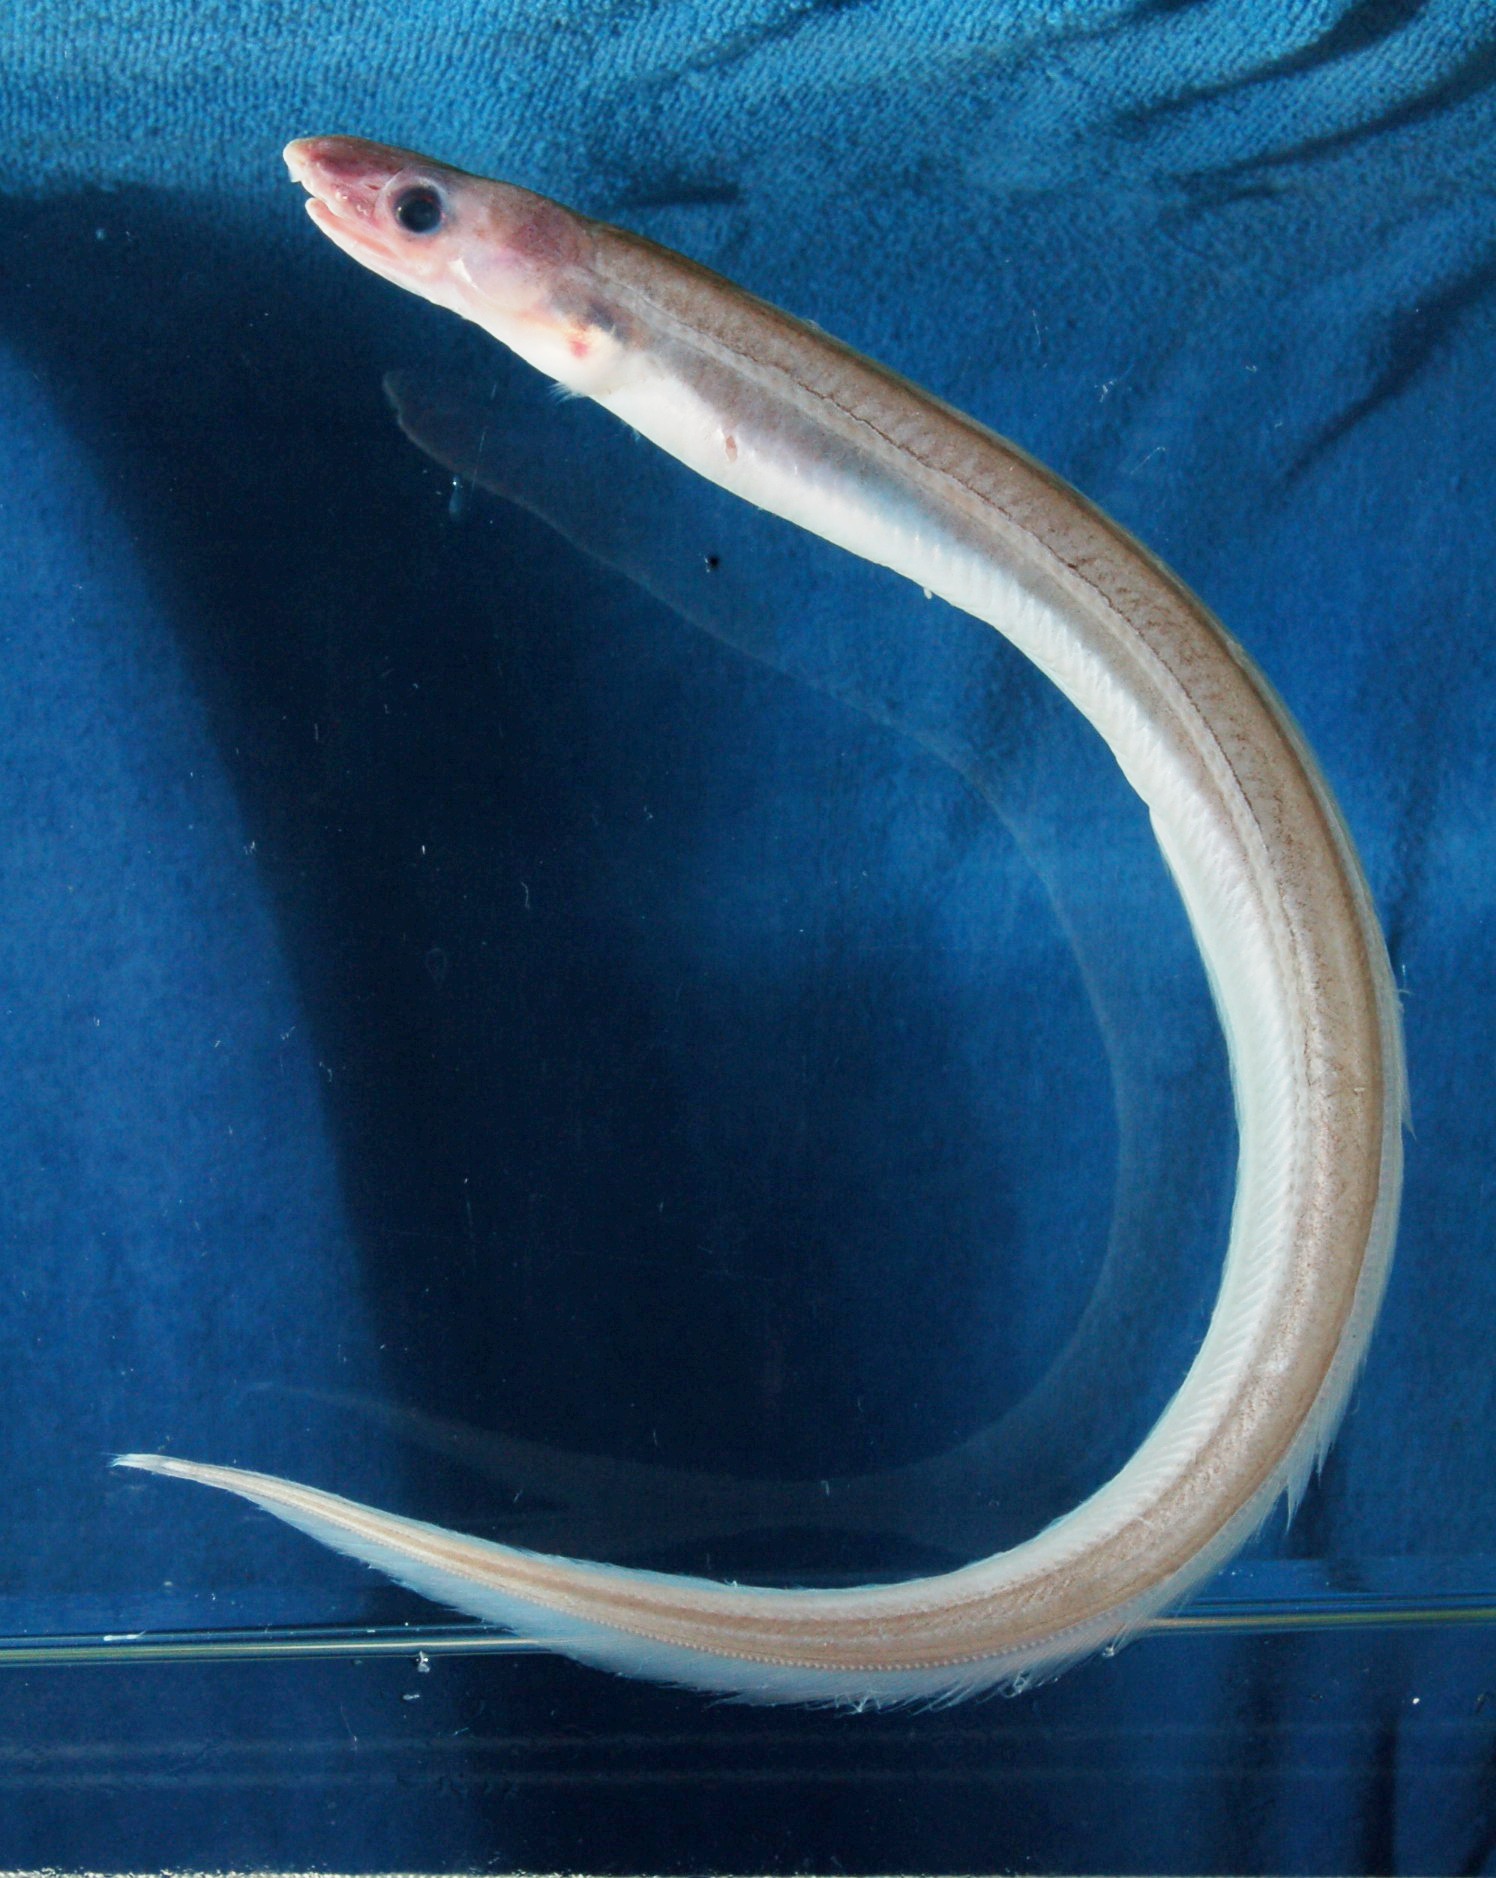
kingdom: Animalia
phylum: Chordata
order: Anguilliformes
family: Ophichthidae
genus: Echelus
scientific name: Echelus
